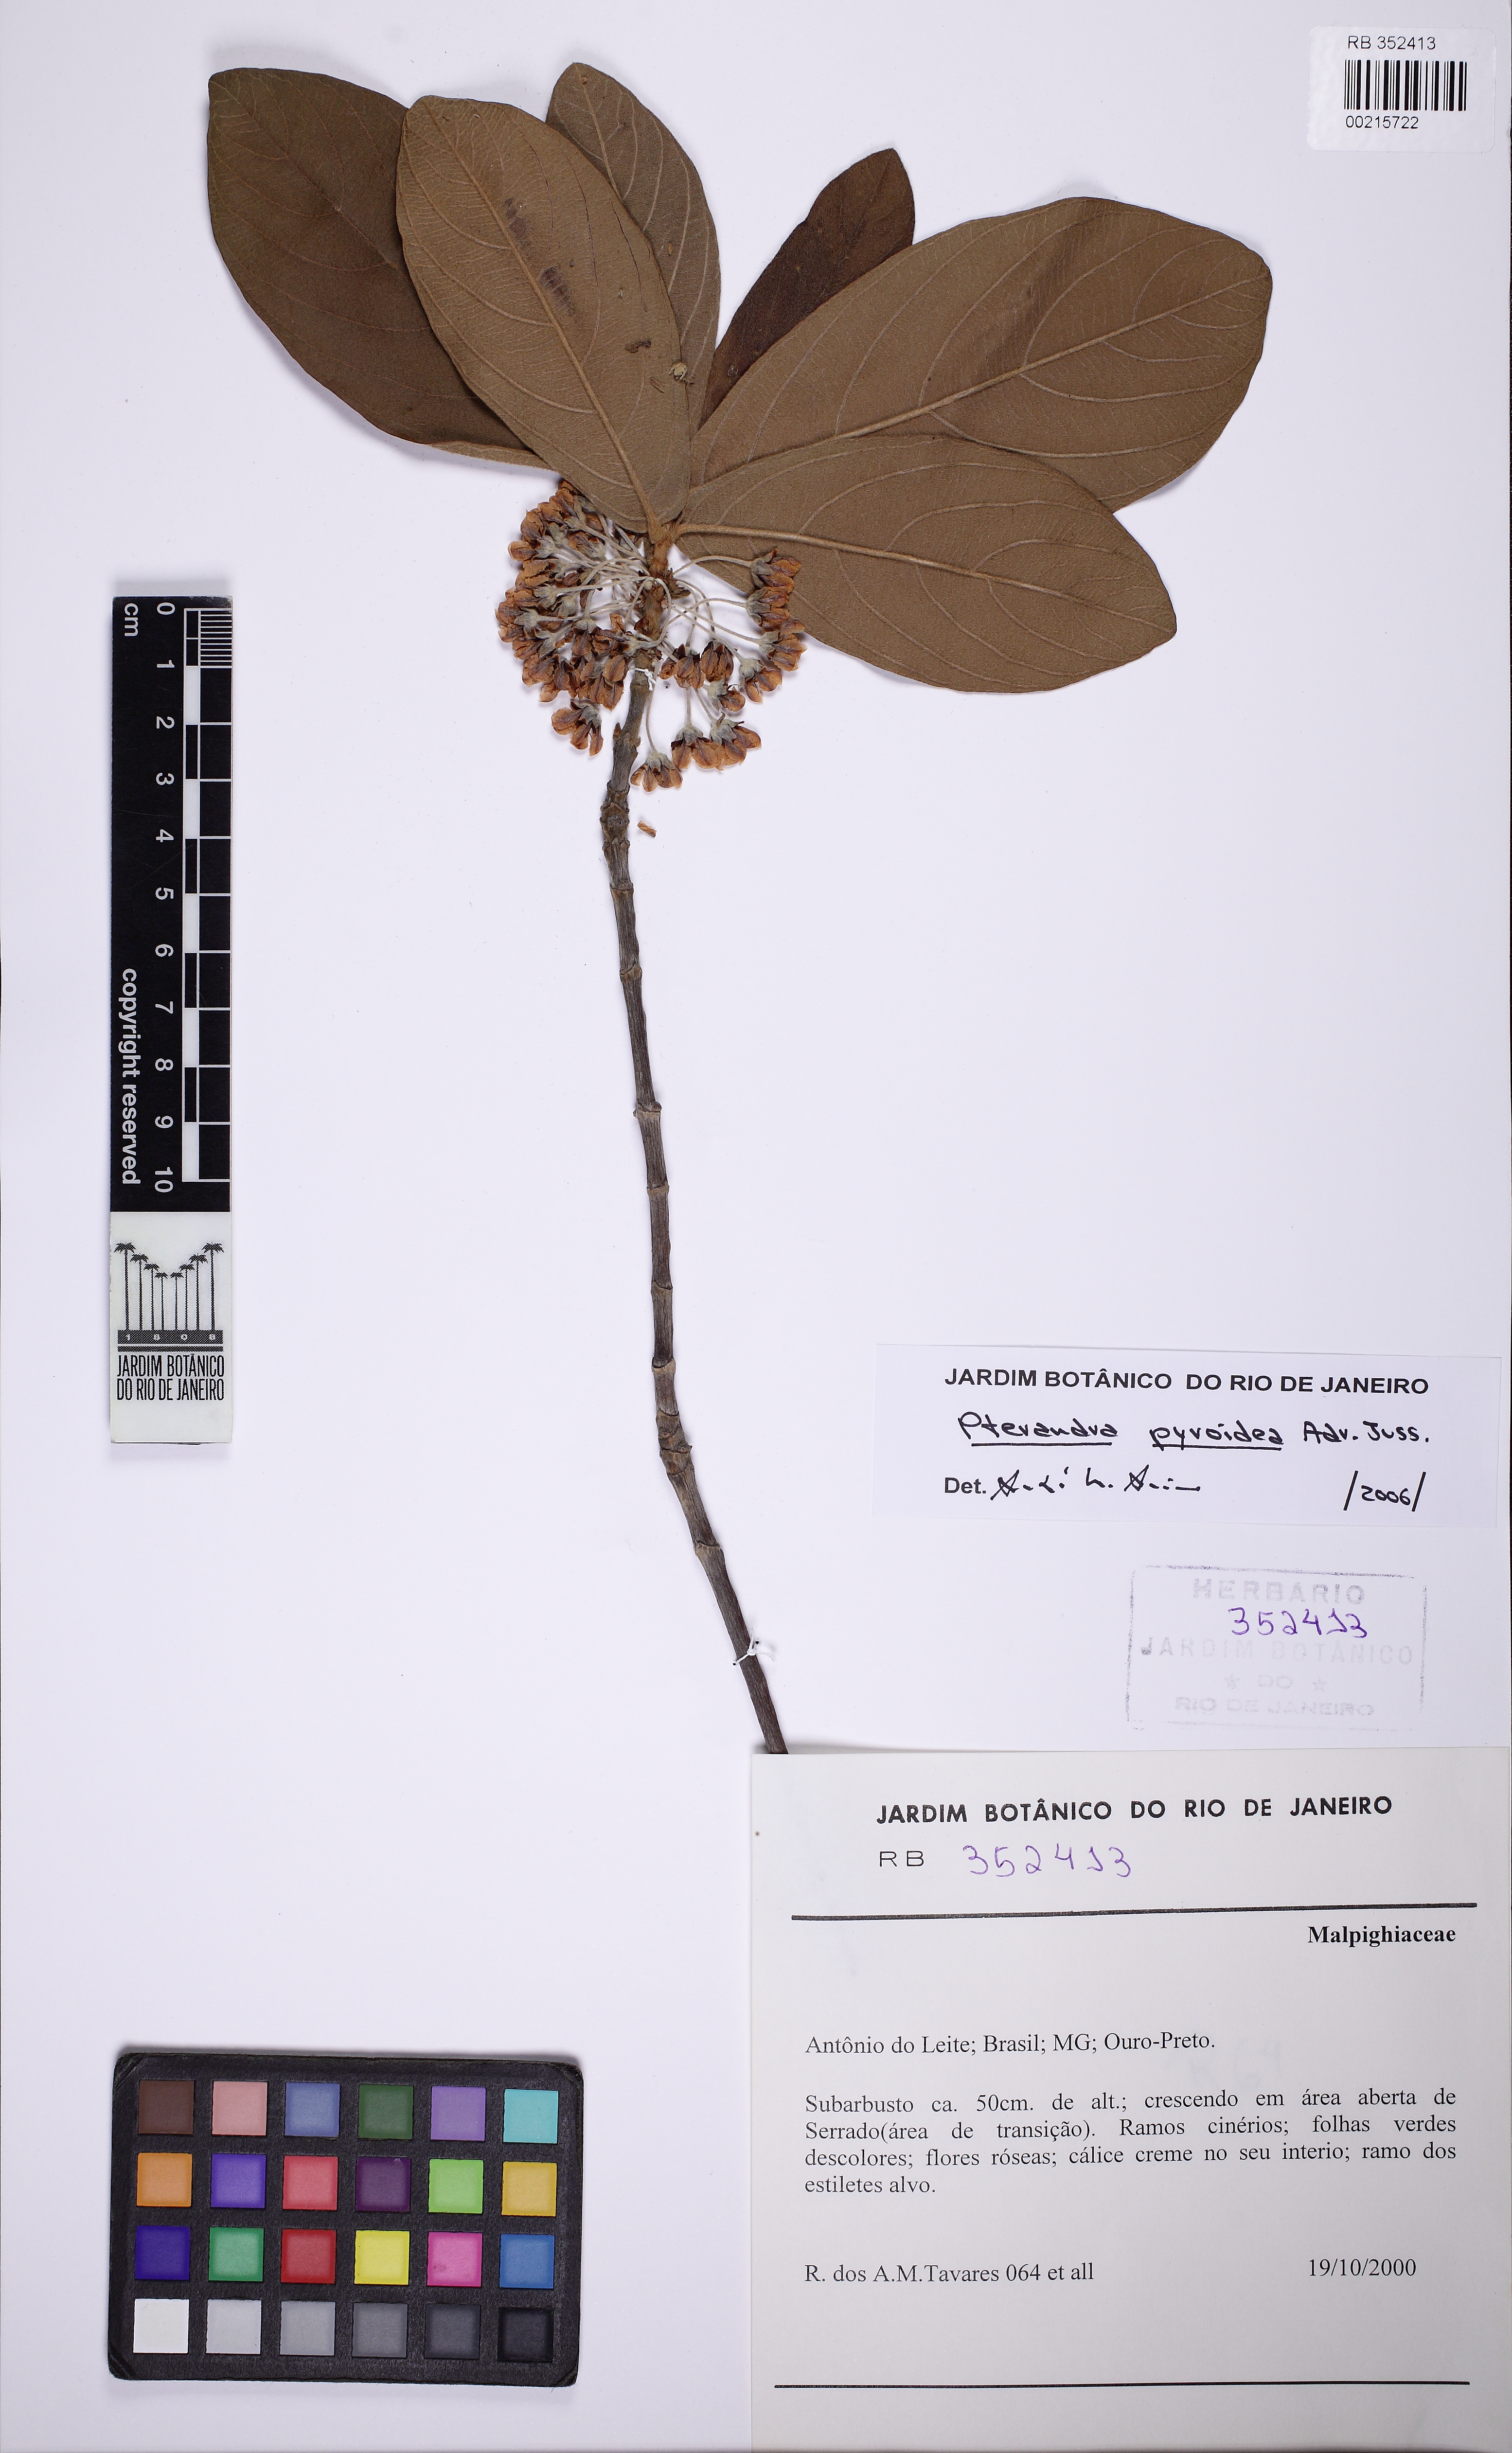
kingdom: Plantae
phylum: Tracheophyta
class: Magnoliopsida
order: Malpighiales
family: Malpighiaceae
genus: Pterandra
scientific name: Pterandra pyroidea
